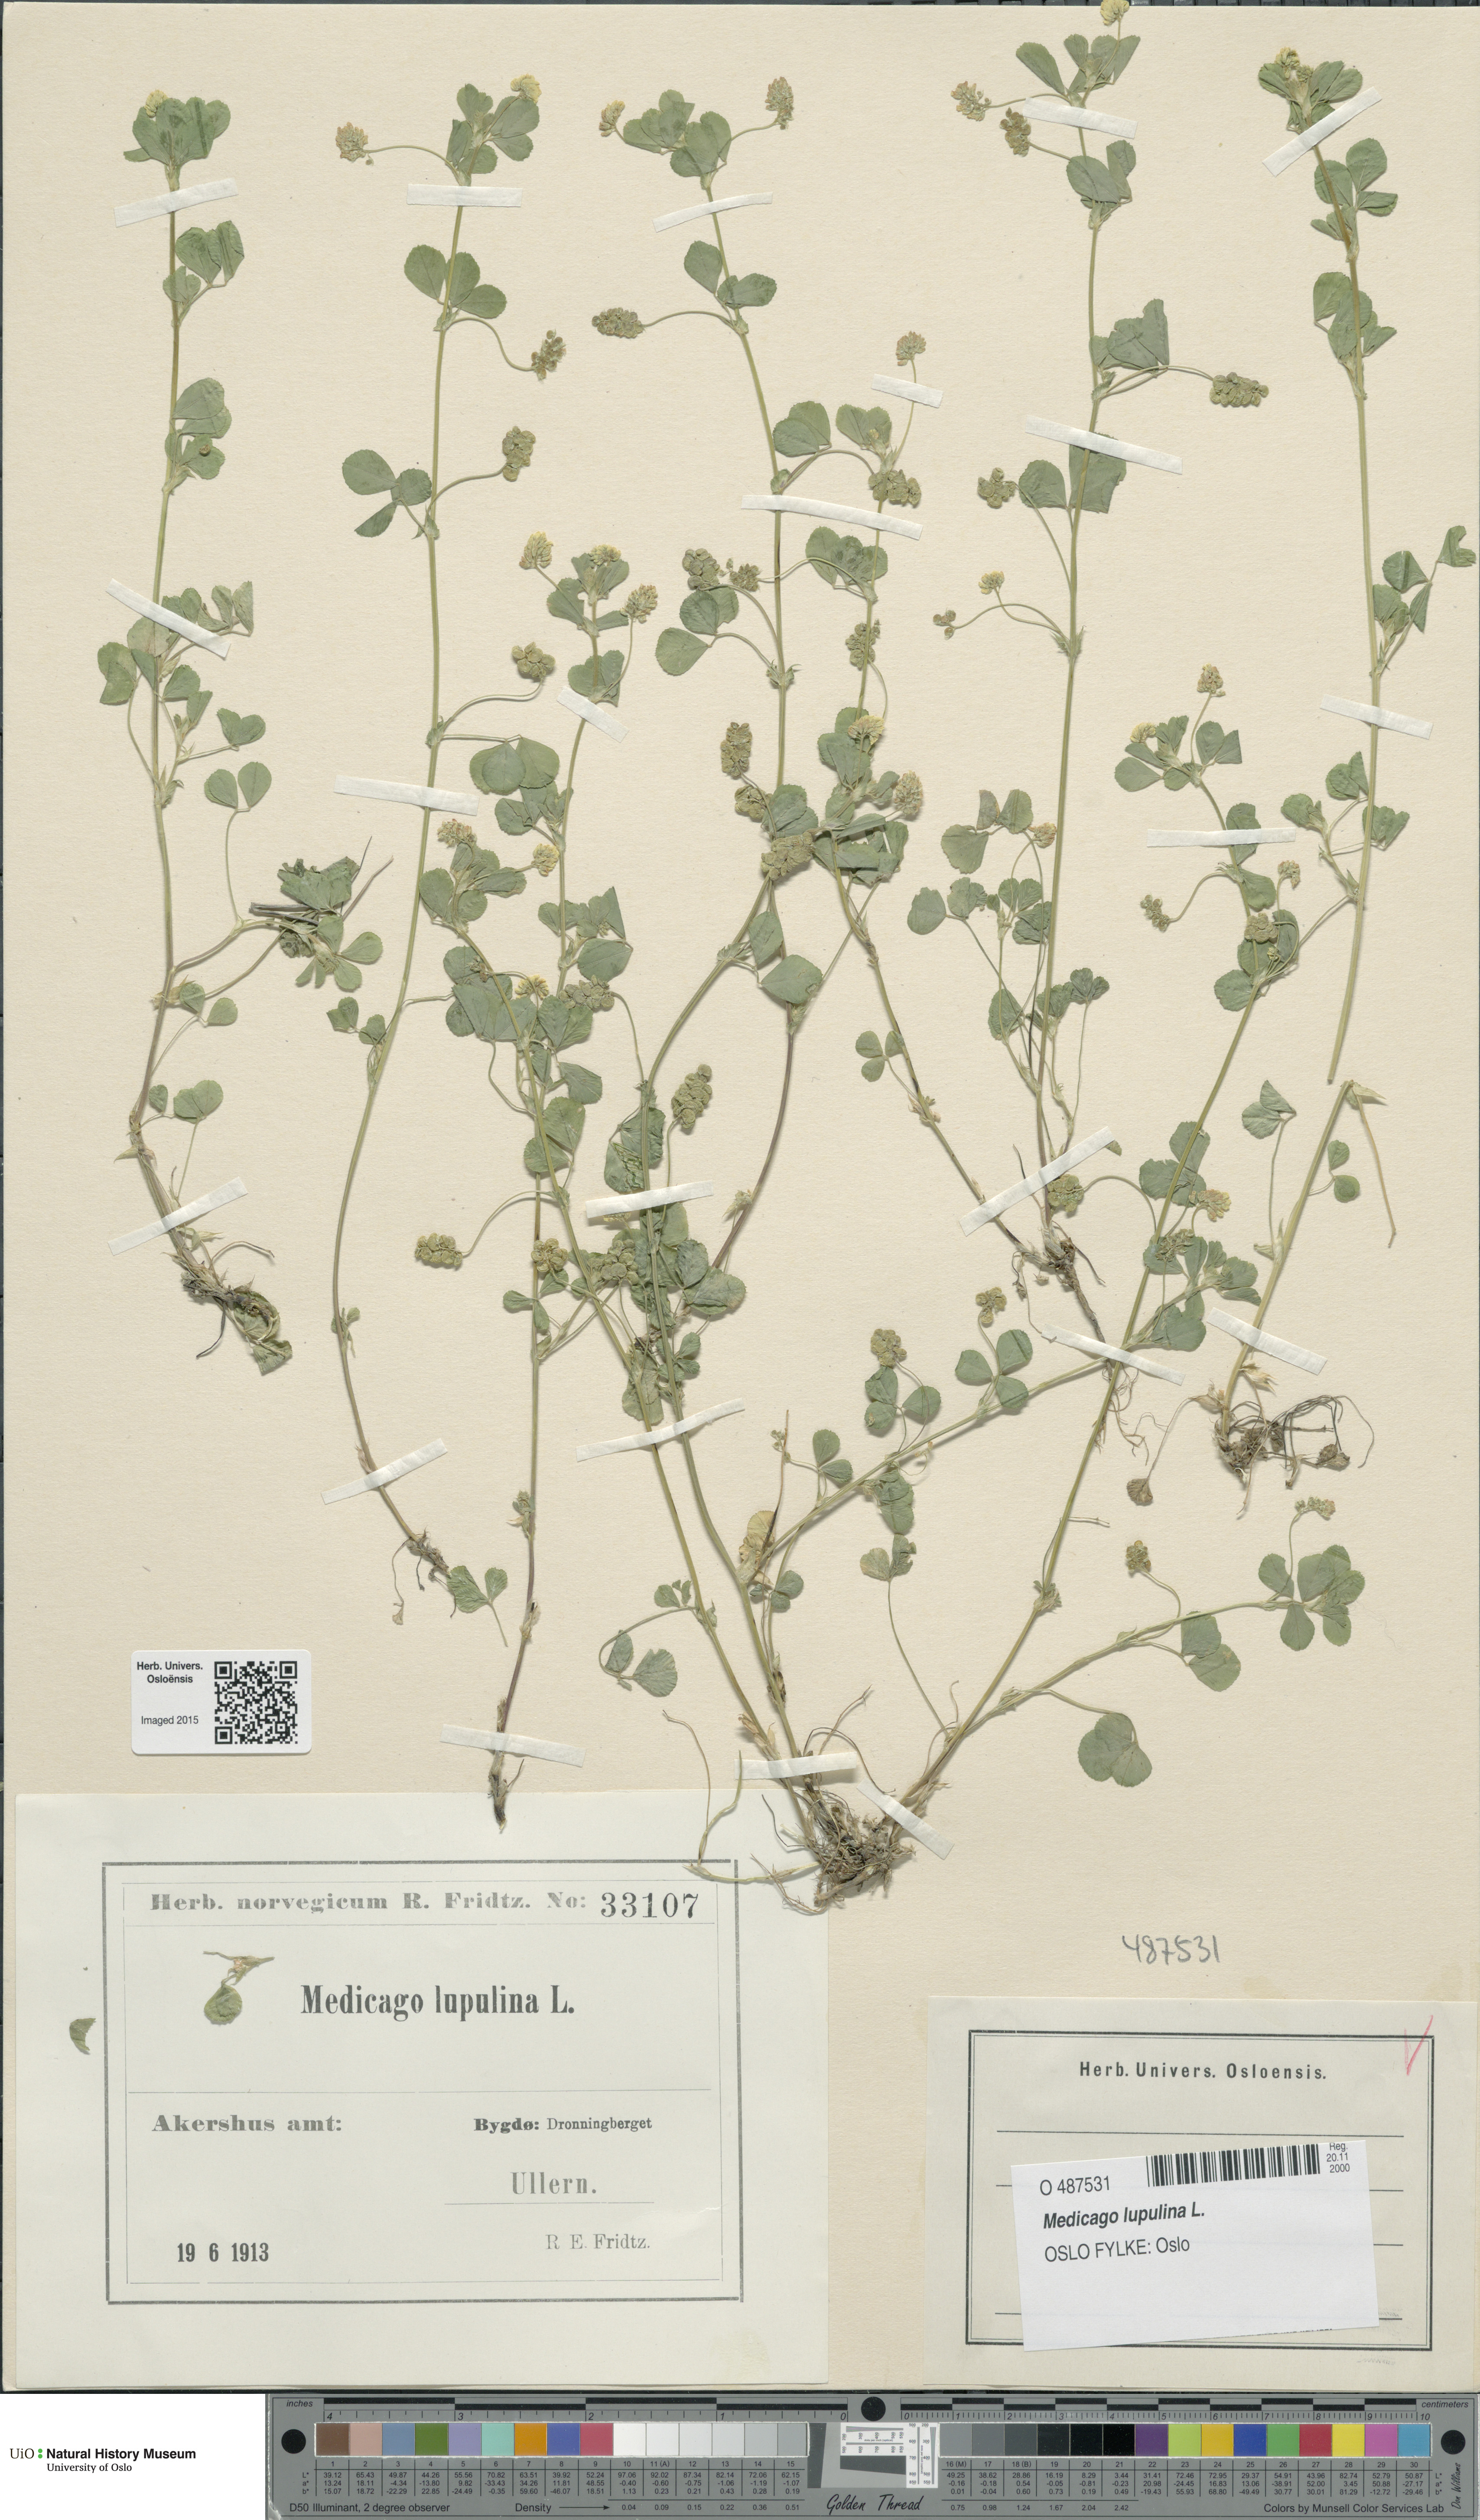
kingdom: Plantae
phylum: Tracheophyta
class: Magnoliopsida
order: Fabales
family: Fabaceae
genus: Medicago
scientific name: Medicago lupulina
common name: Black medick
